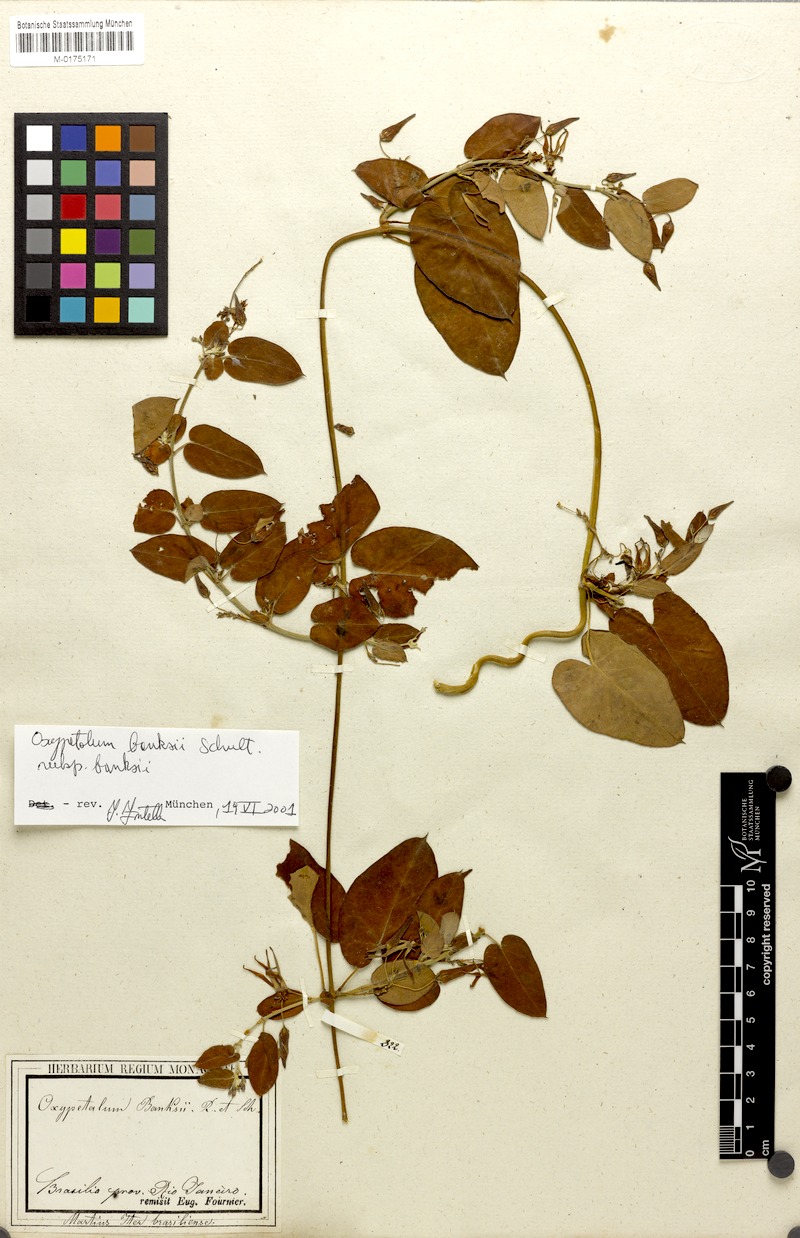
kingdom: Plantae
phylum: Tracheophyta
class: Magnoliopsida
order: Gentianales
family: Apocynaceae
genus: Oxypetalum
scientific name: Oxypetalum banksii
